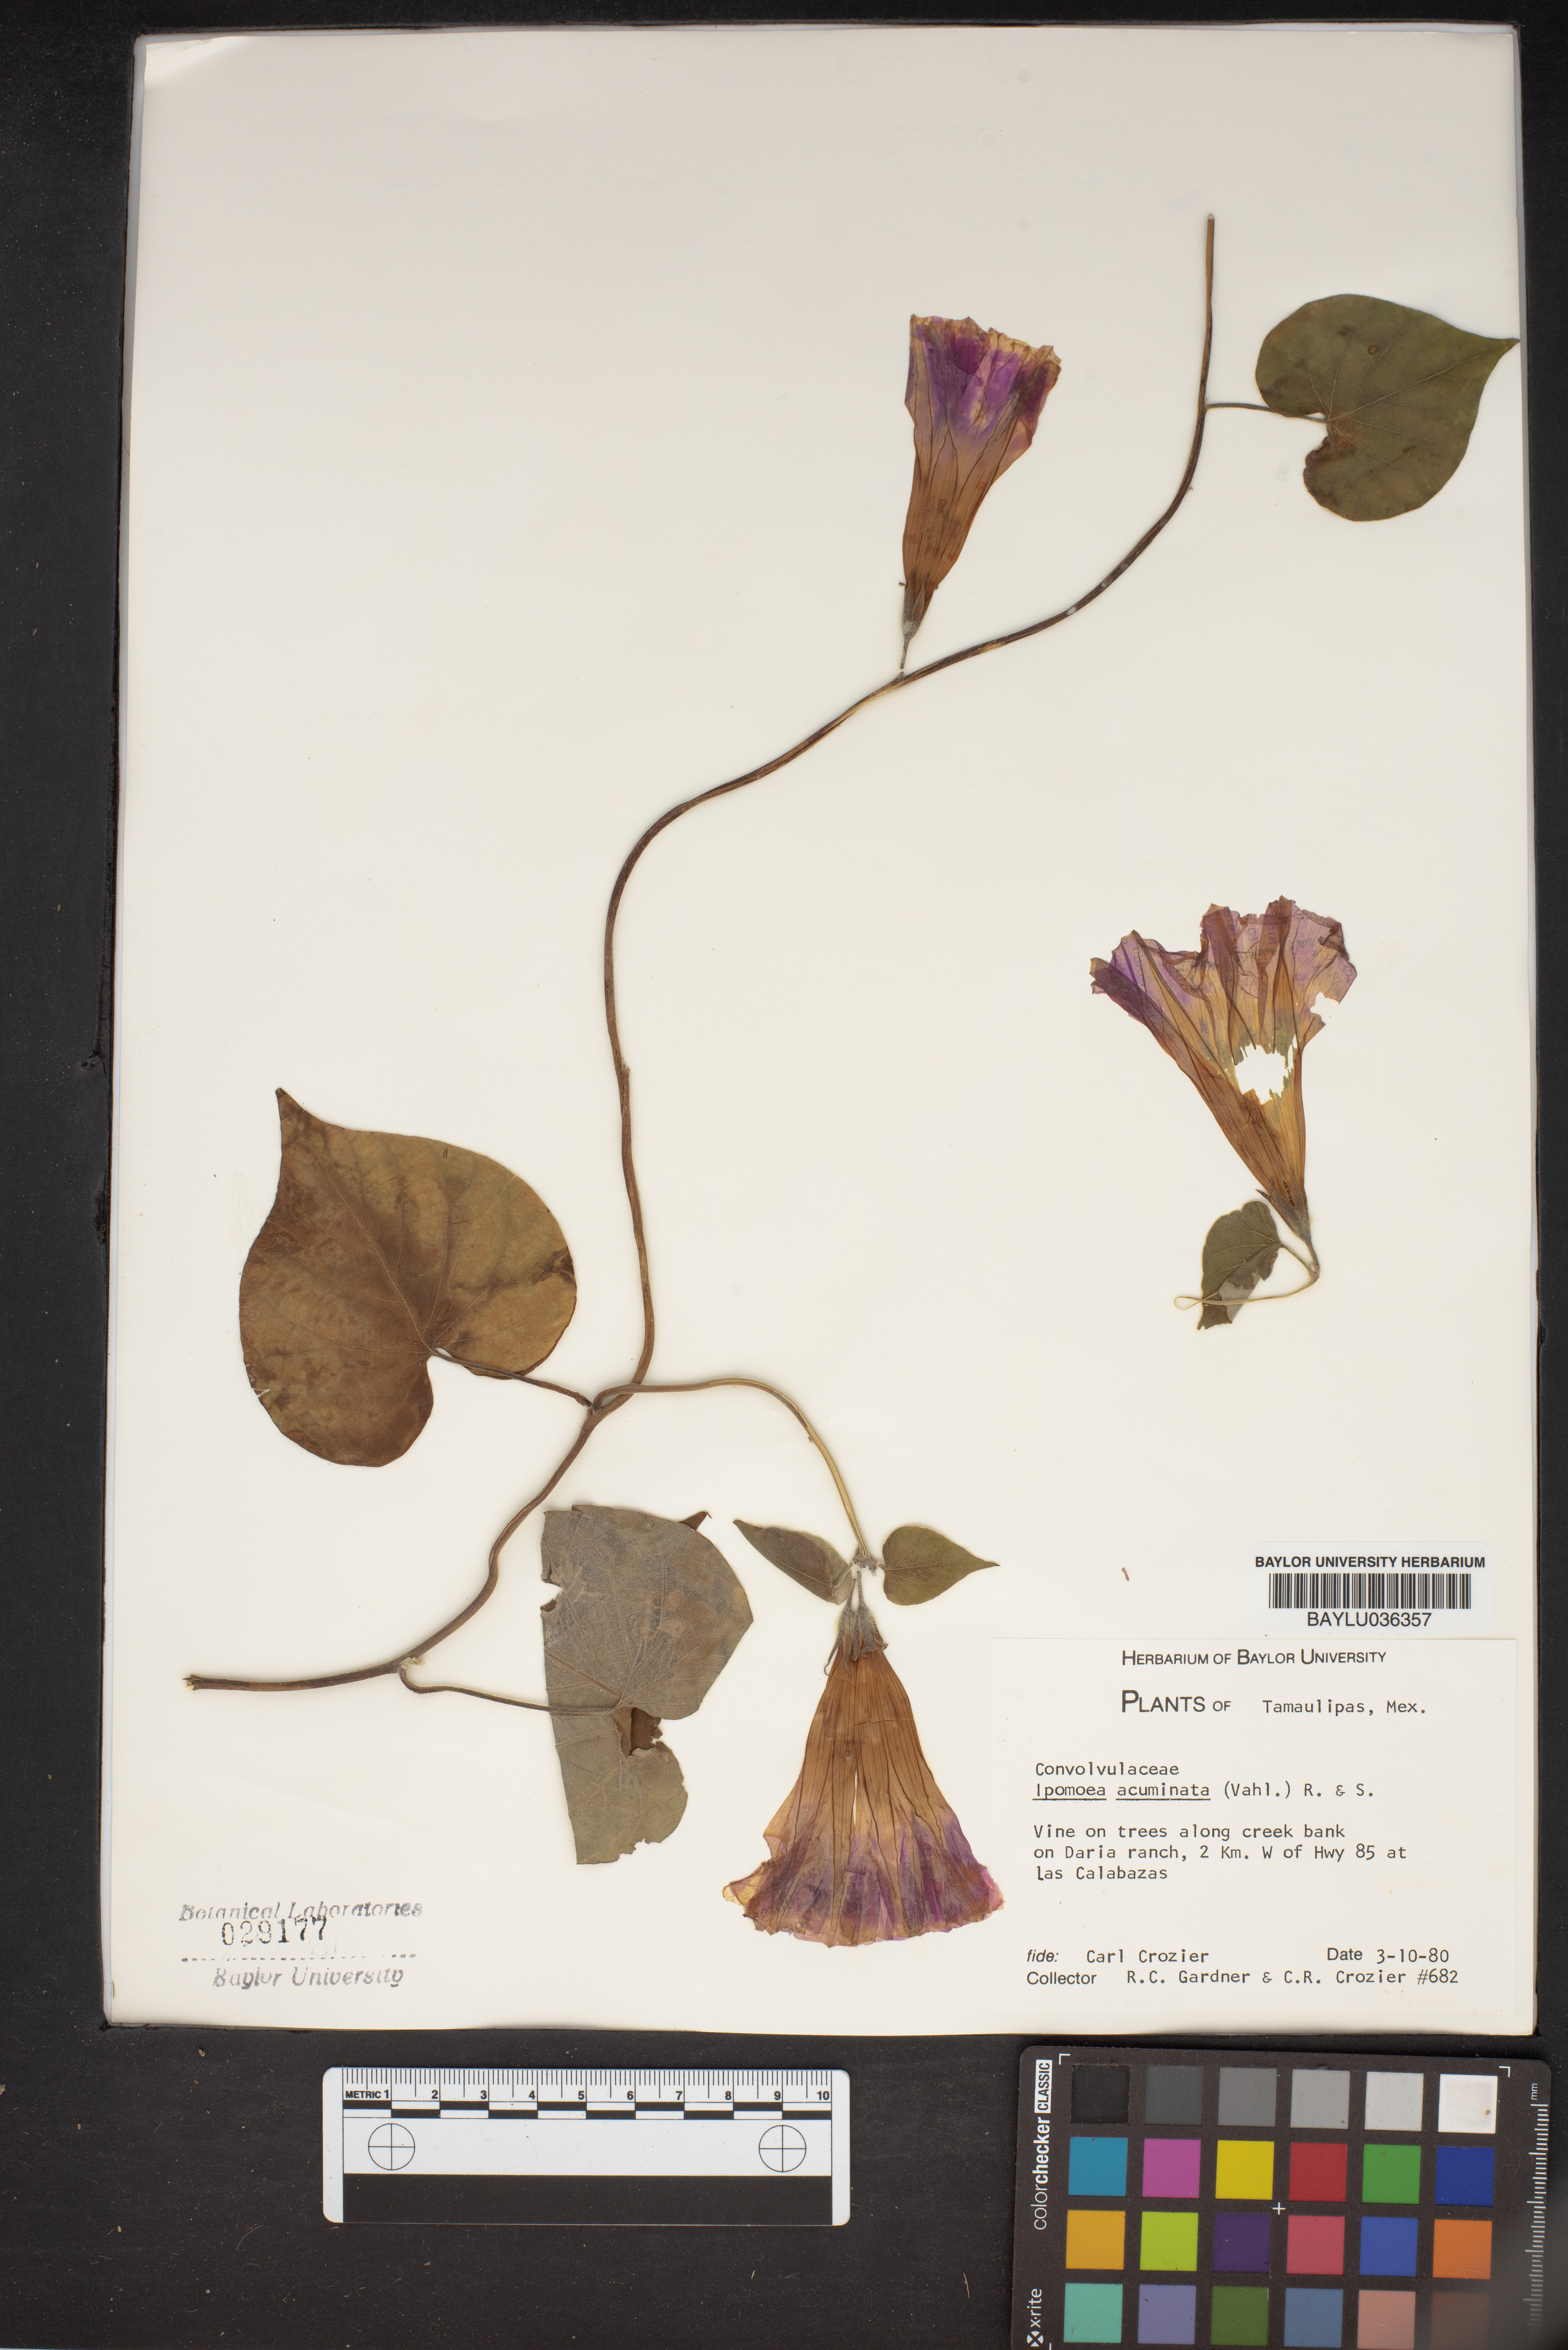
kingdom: Plantae
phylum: Tracheophyta
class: Magnoliopsida
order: Solanales
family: Convolvulaceae
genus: Ipomoea
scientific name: Ipomoea coccinea
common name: Red morning-glory
